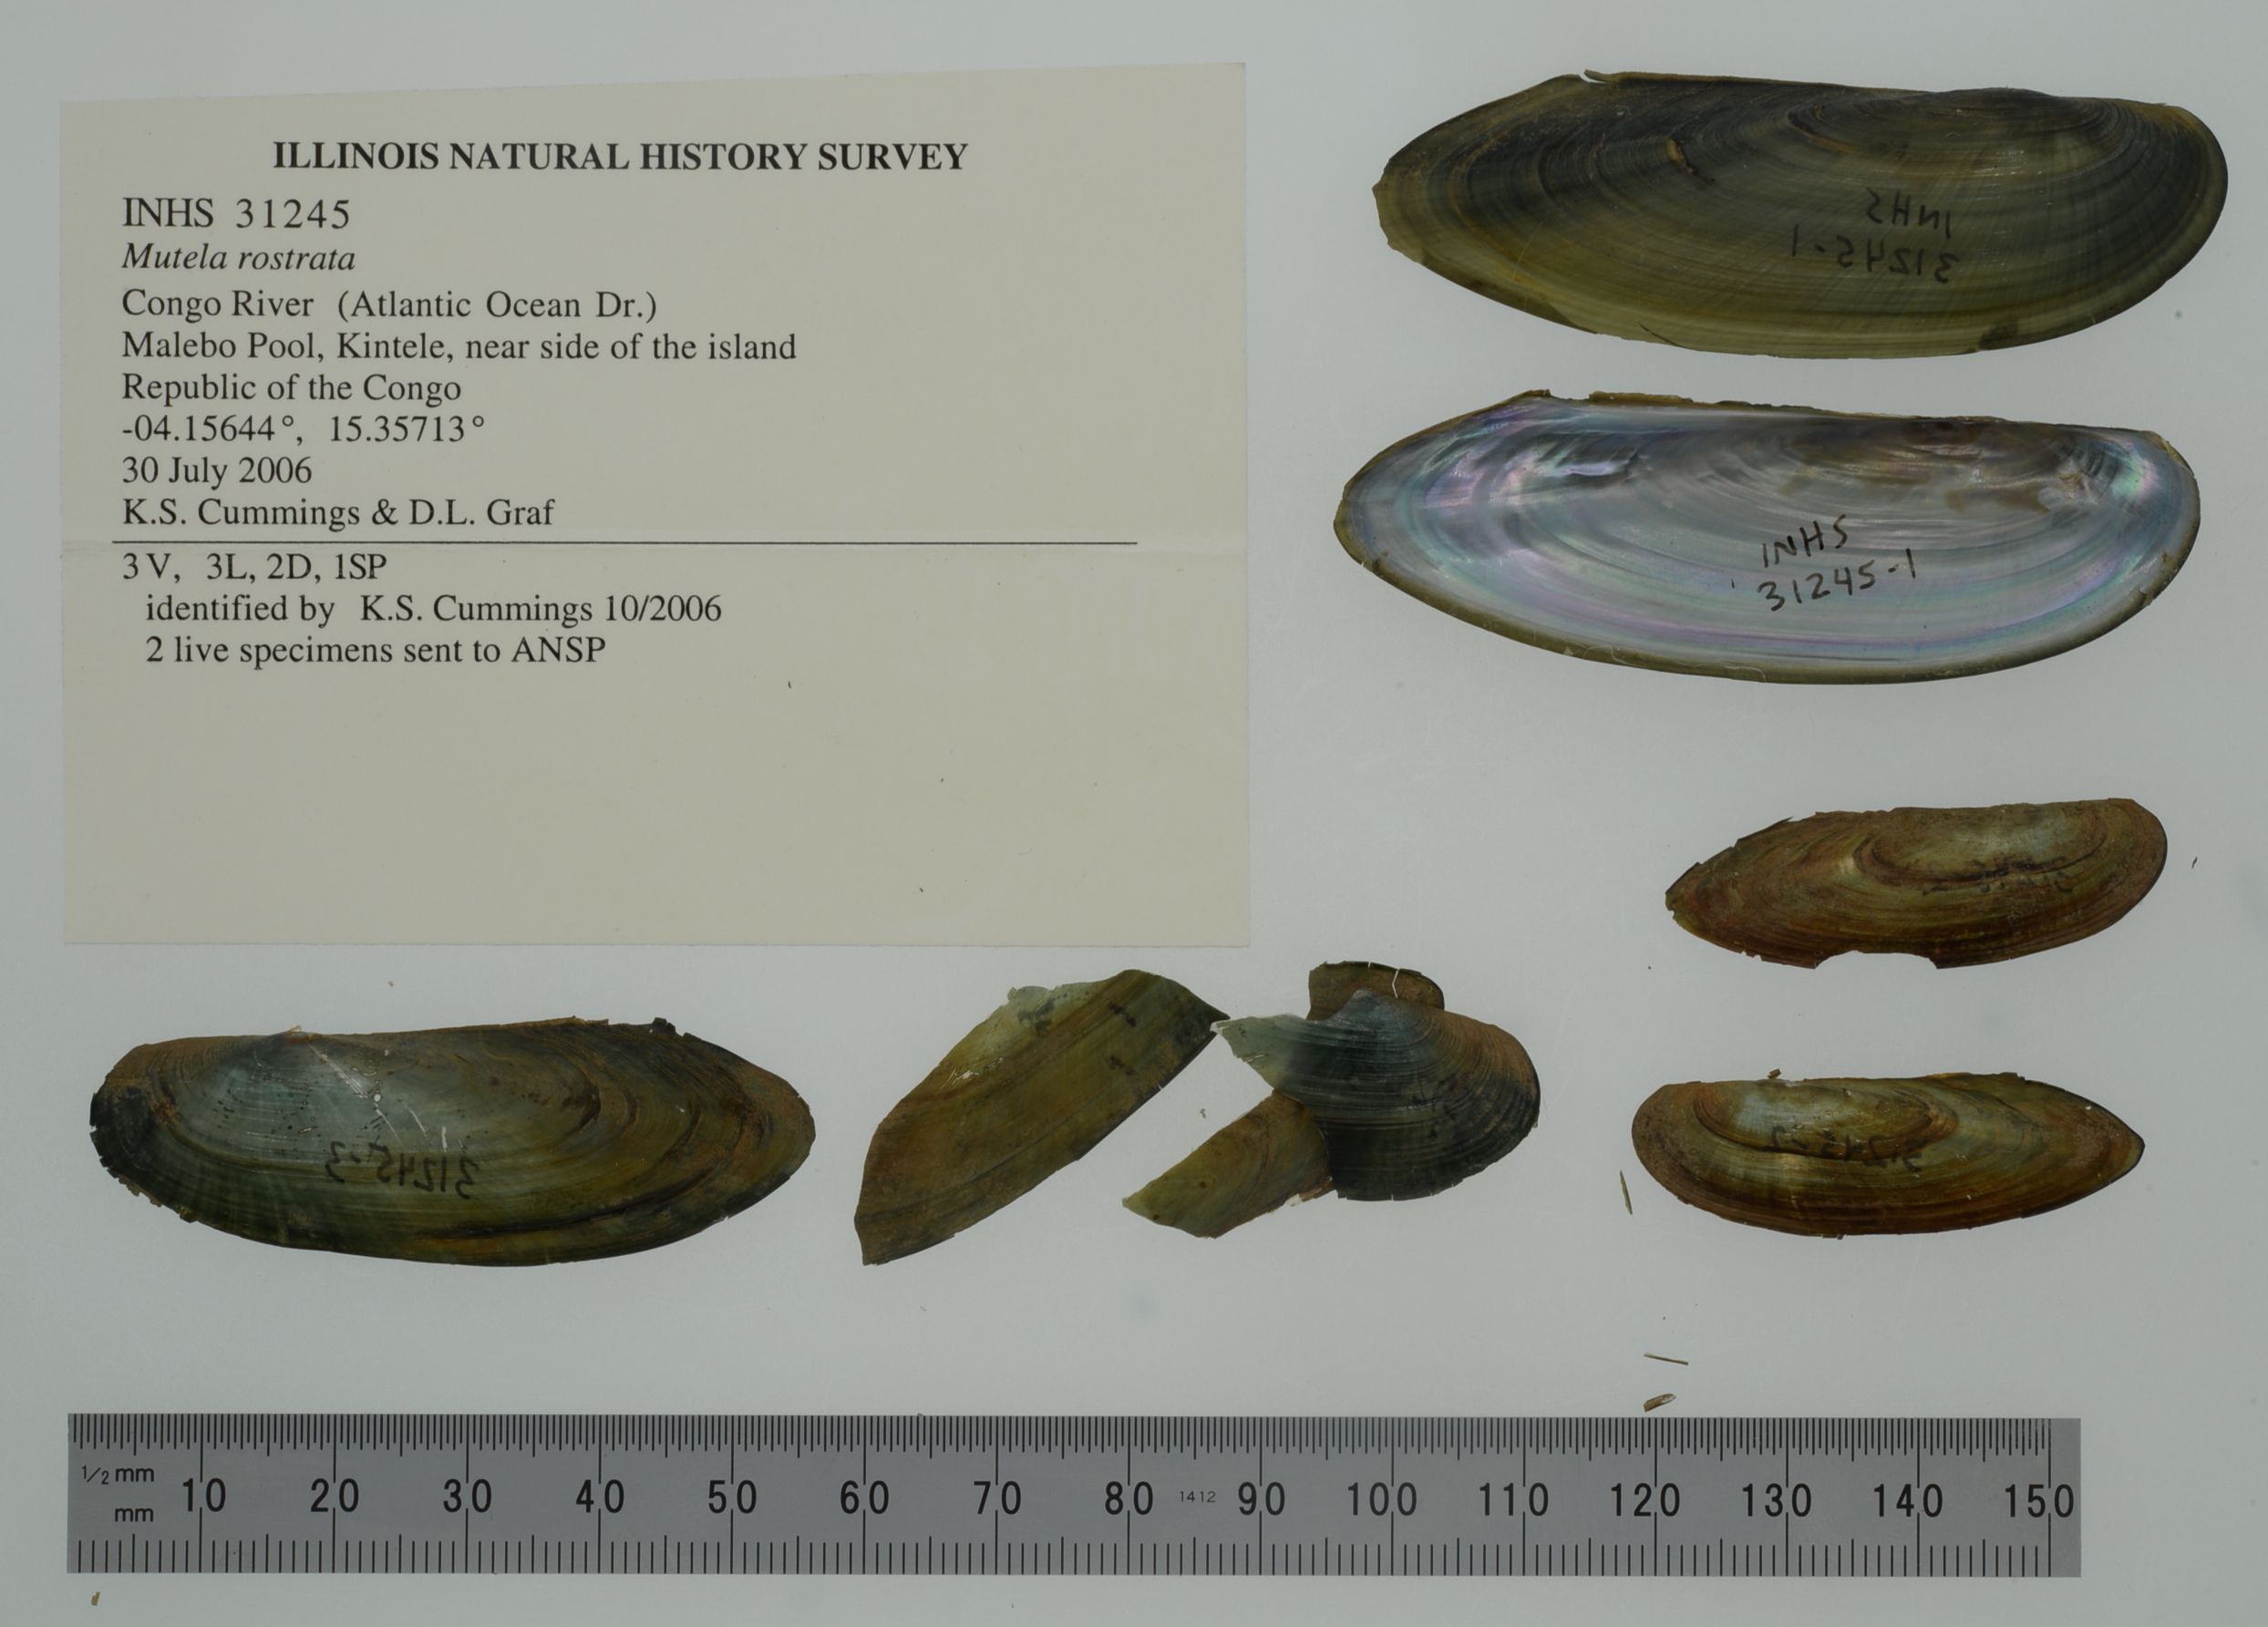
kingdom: Animalia
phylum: Mollusca
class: Bivalvia
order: Unionida
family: Iridinidae
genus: Mutela
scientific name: Mutela rostrata
